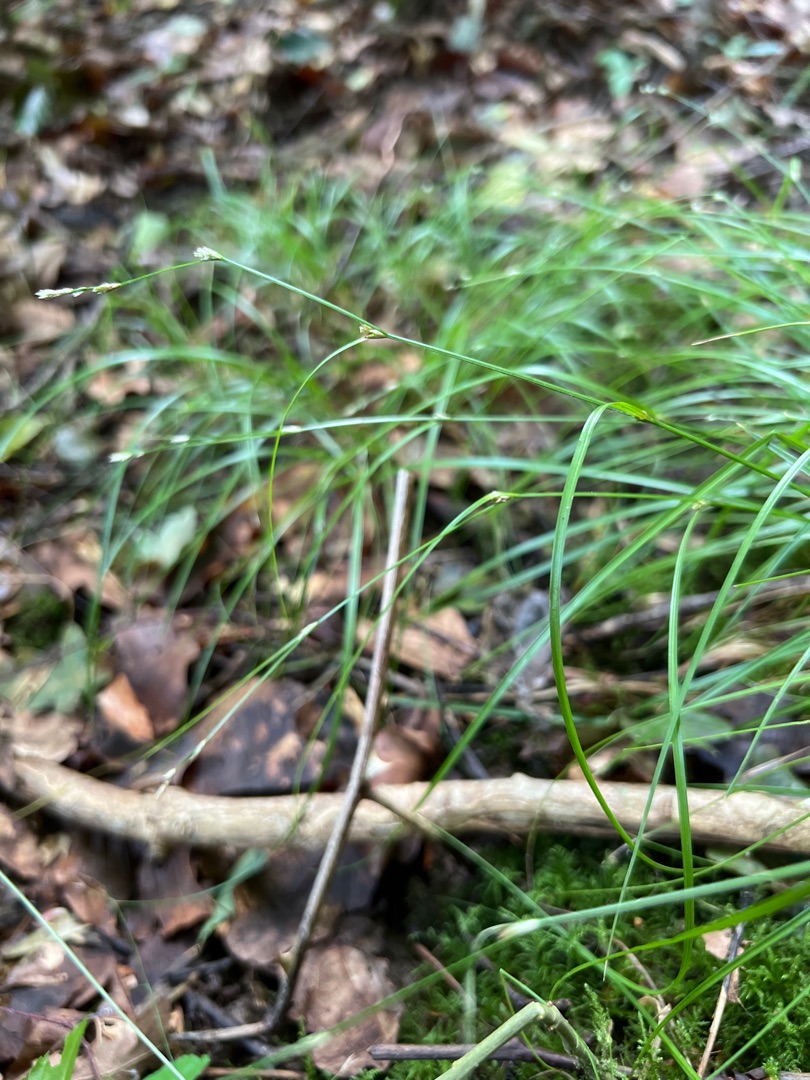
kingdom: Plantae
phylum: Tracheophyta
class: Liliopsida
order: Poales
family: Cyperaceae
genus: Carex
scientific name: Carex remota
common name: Akselblomstret star
